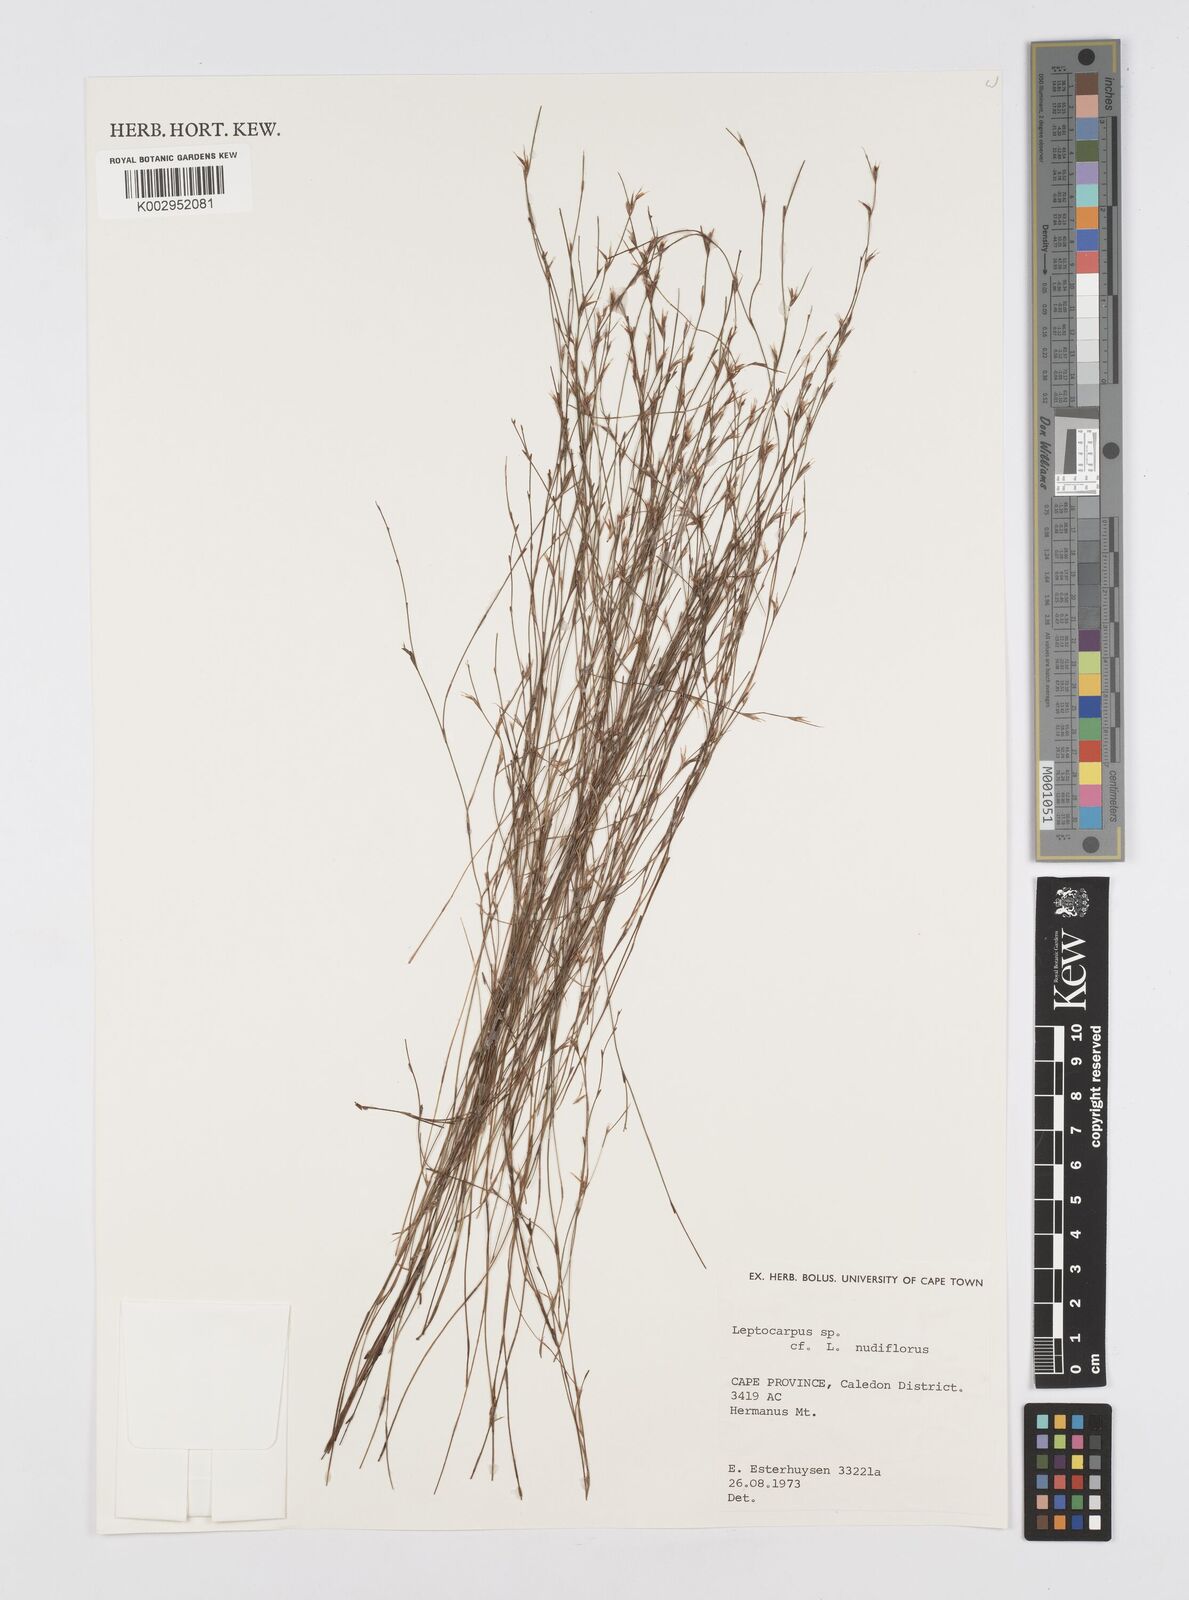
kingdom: Plantae
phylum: Tracheophyta
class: Liliopsida
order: Poales
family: Restionaceae
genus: Restio
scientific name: Restio nudiflorus
